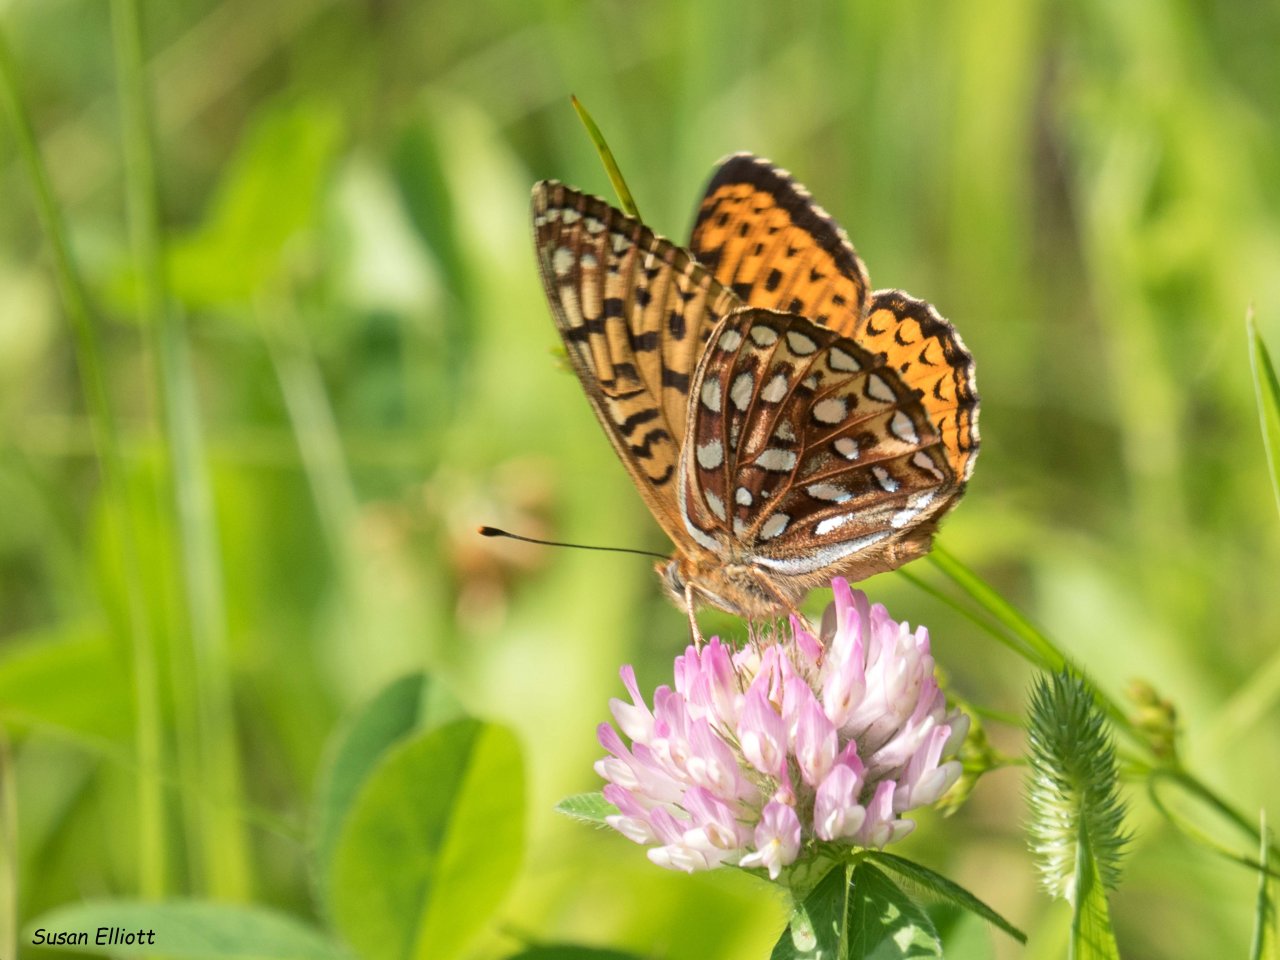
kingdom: Animalia
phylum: Arthropoda
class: Insecta
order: Lepidoptera
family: Nymphalidae
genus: Speyeria
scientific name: Speyeria atlantis
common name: Atlantis Fritillary
